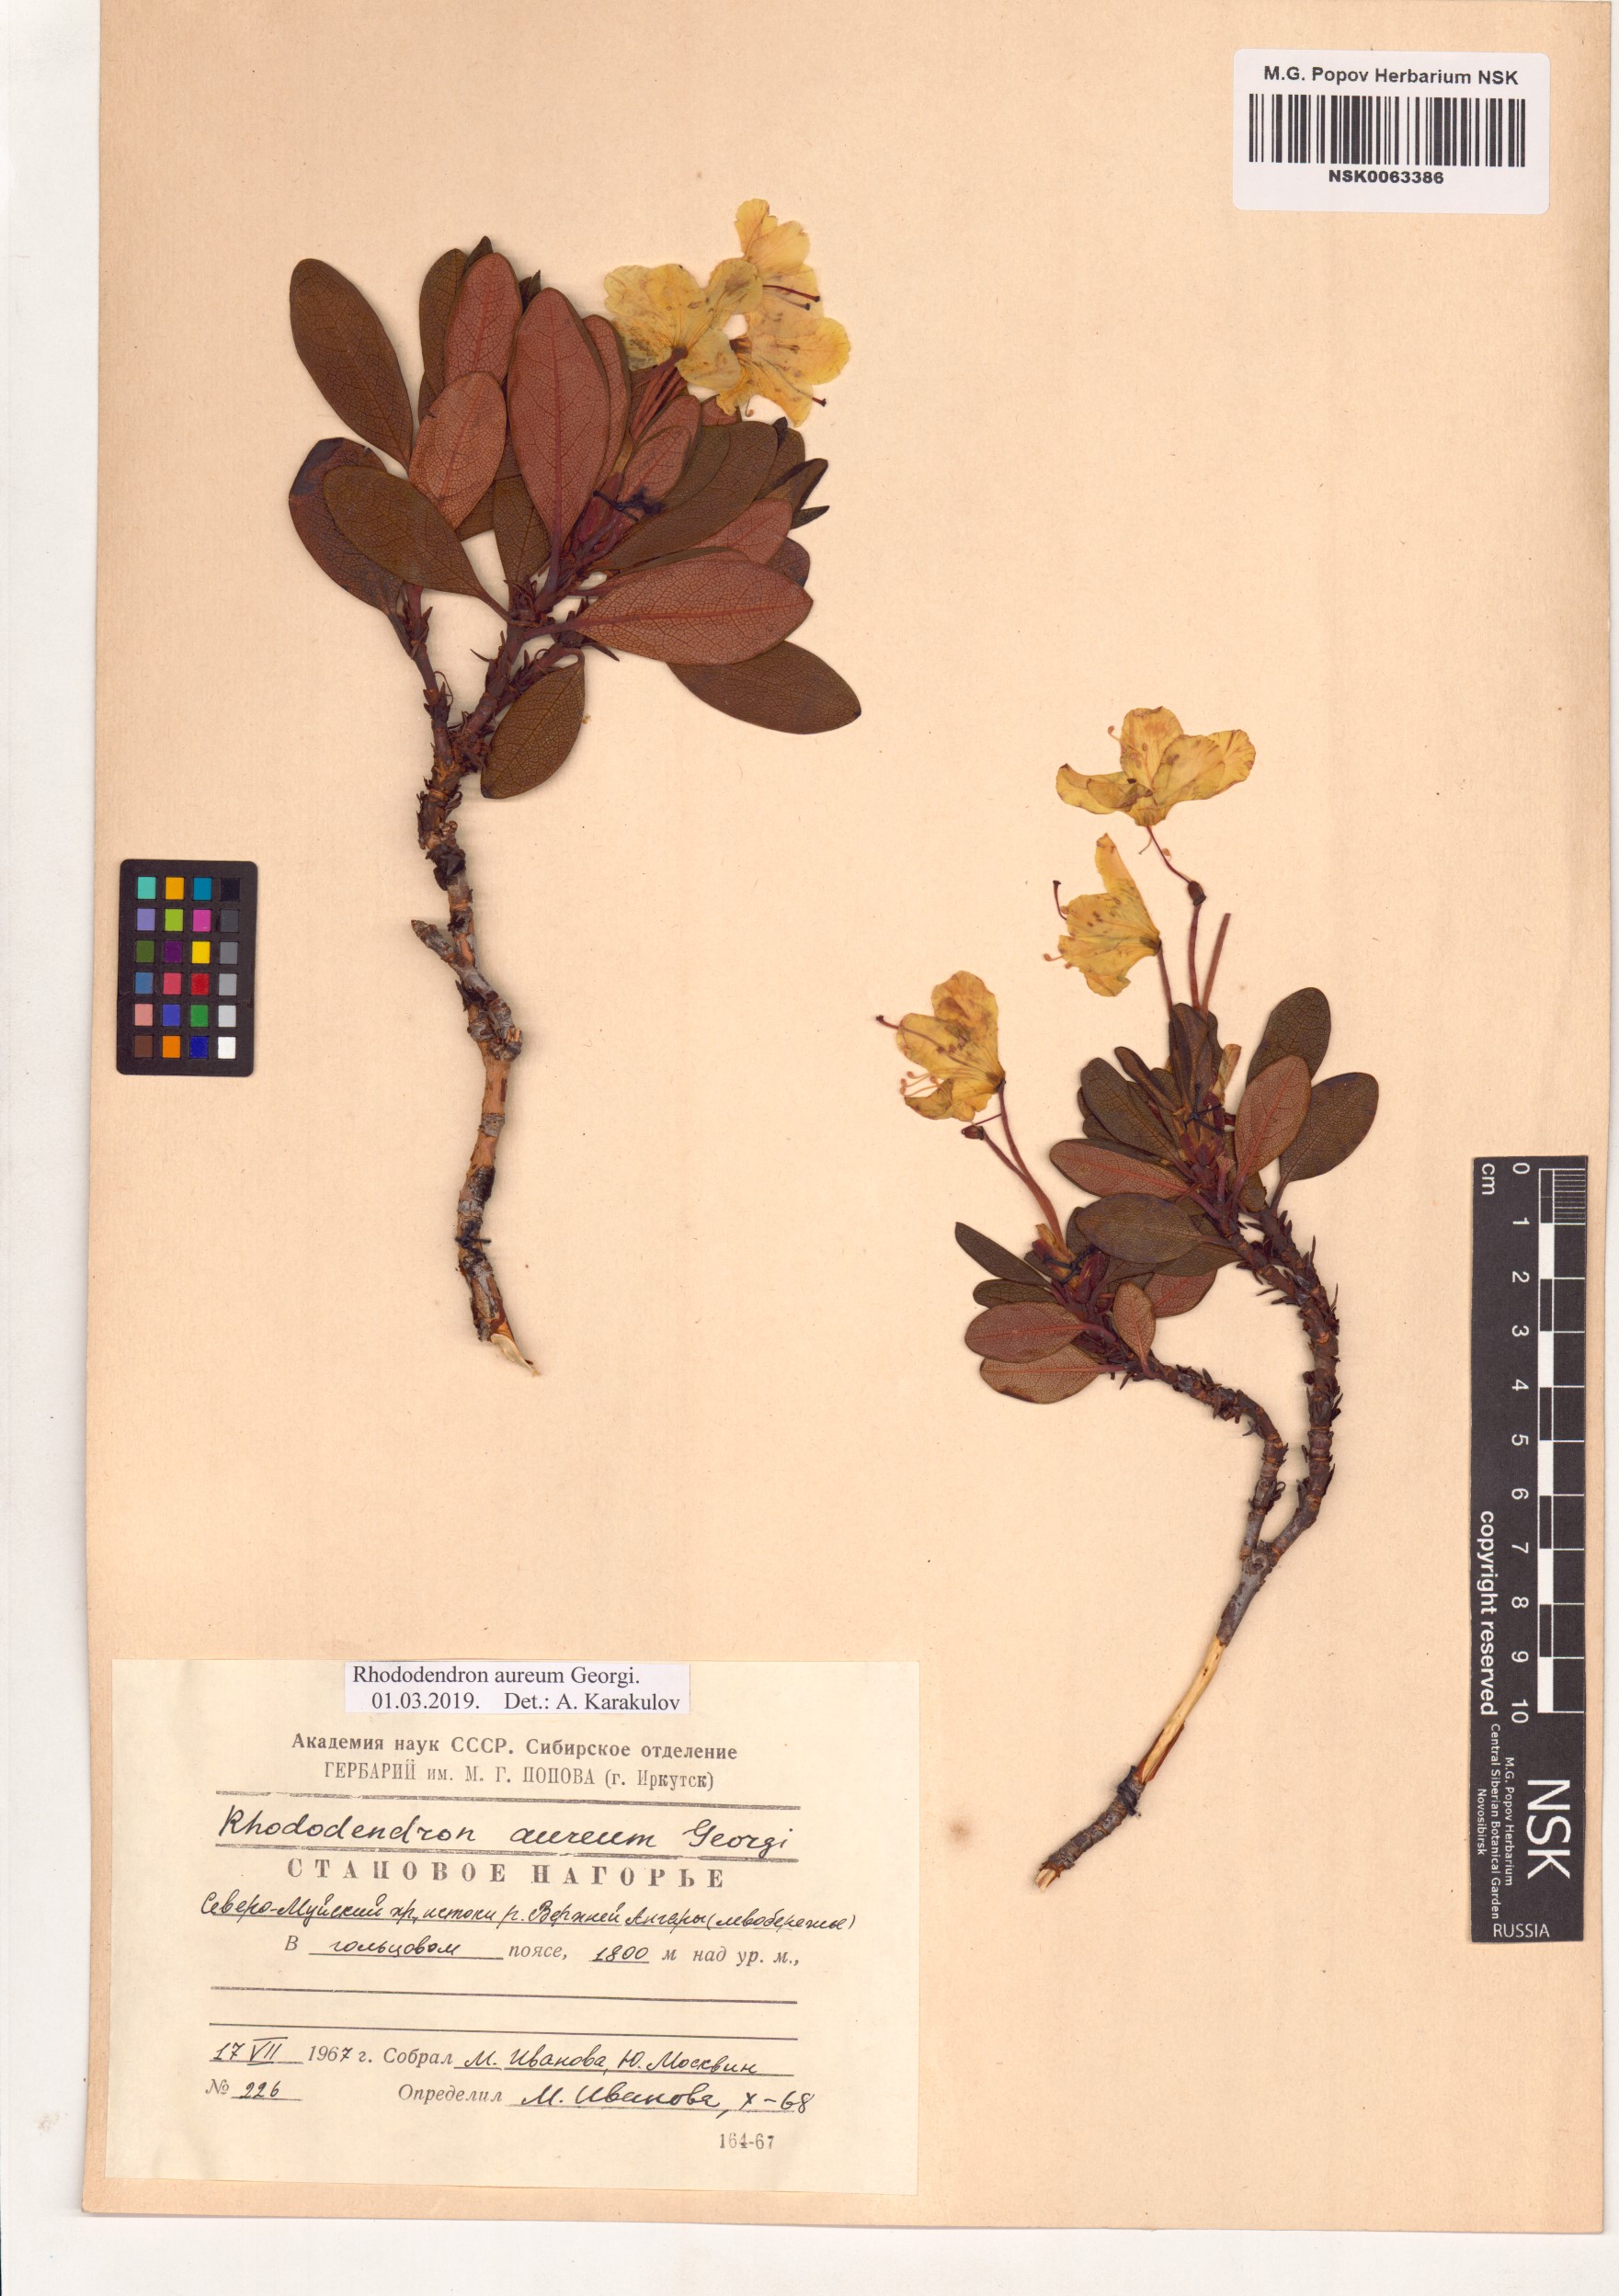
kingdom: Plantae
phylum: Tracheophyta
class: Magnoliopsida
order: Ericales
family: Ericaceae
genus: Rhododendron
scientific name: Rhododendron aureum
